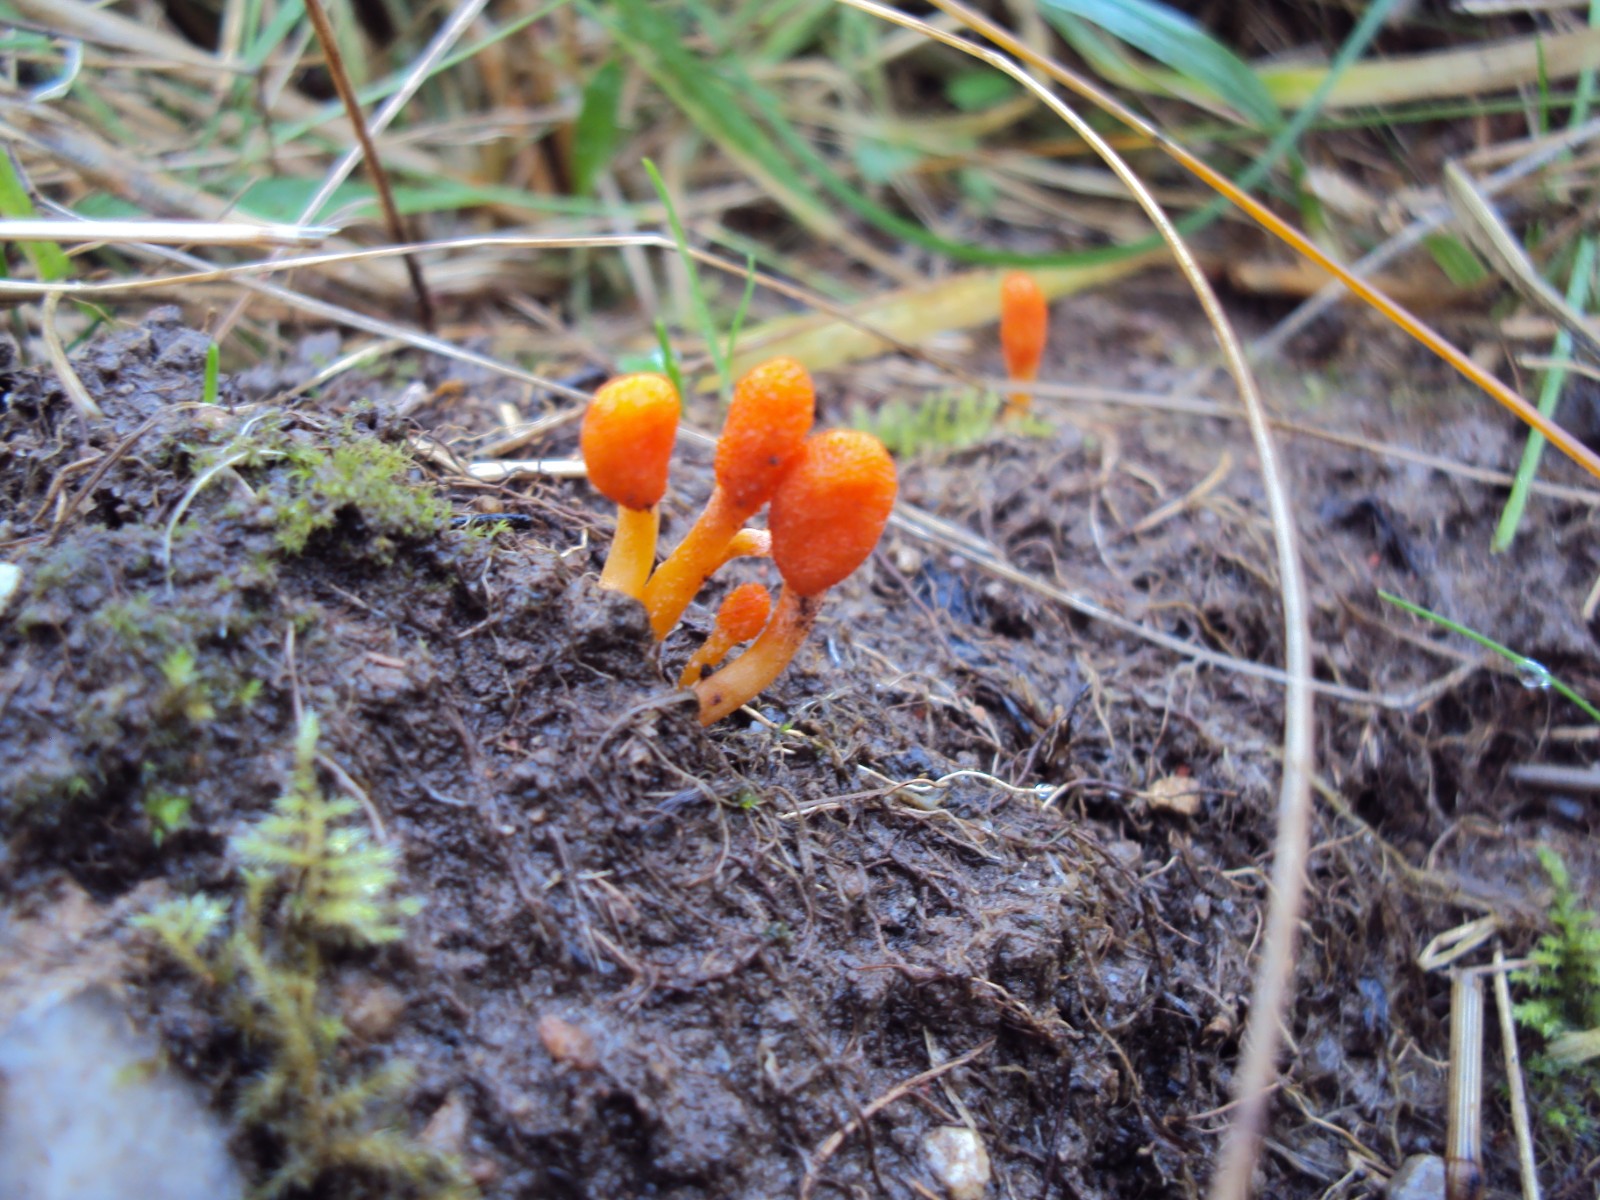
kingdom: Fungi
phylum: Ascomycota
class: Sordariomycetes
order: Hypocreales
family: Cordycipitaceae
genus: Cordyceps
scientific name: Cordyceps militaris
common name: puppe-snyltekølle
